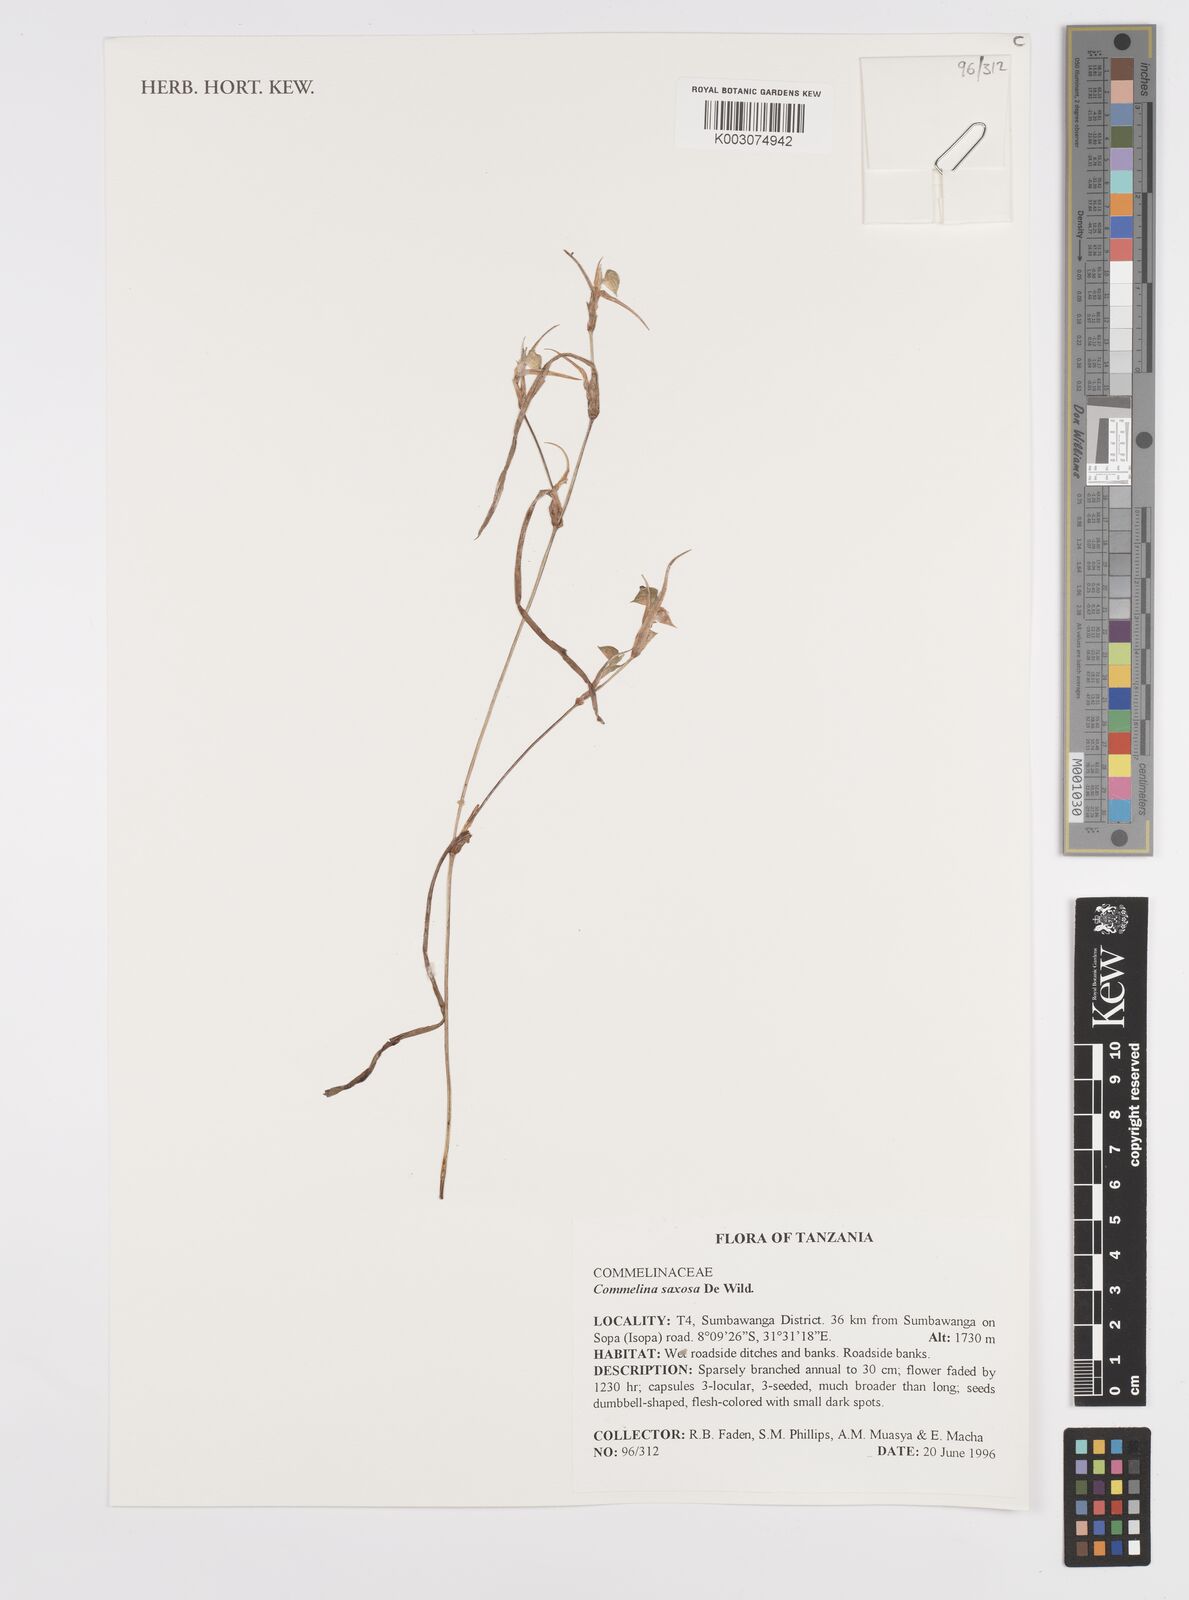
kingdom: Plantae
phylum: Tracheophyta
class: Liliopsida
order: Commelinales
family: Commelinaceae
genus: Commelina
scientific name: Commelina saxosa
